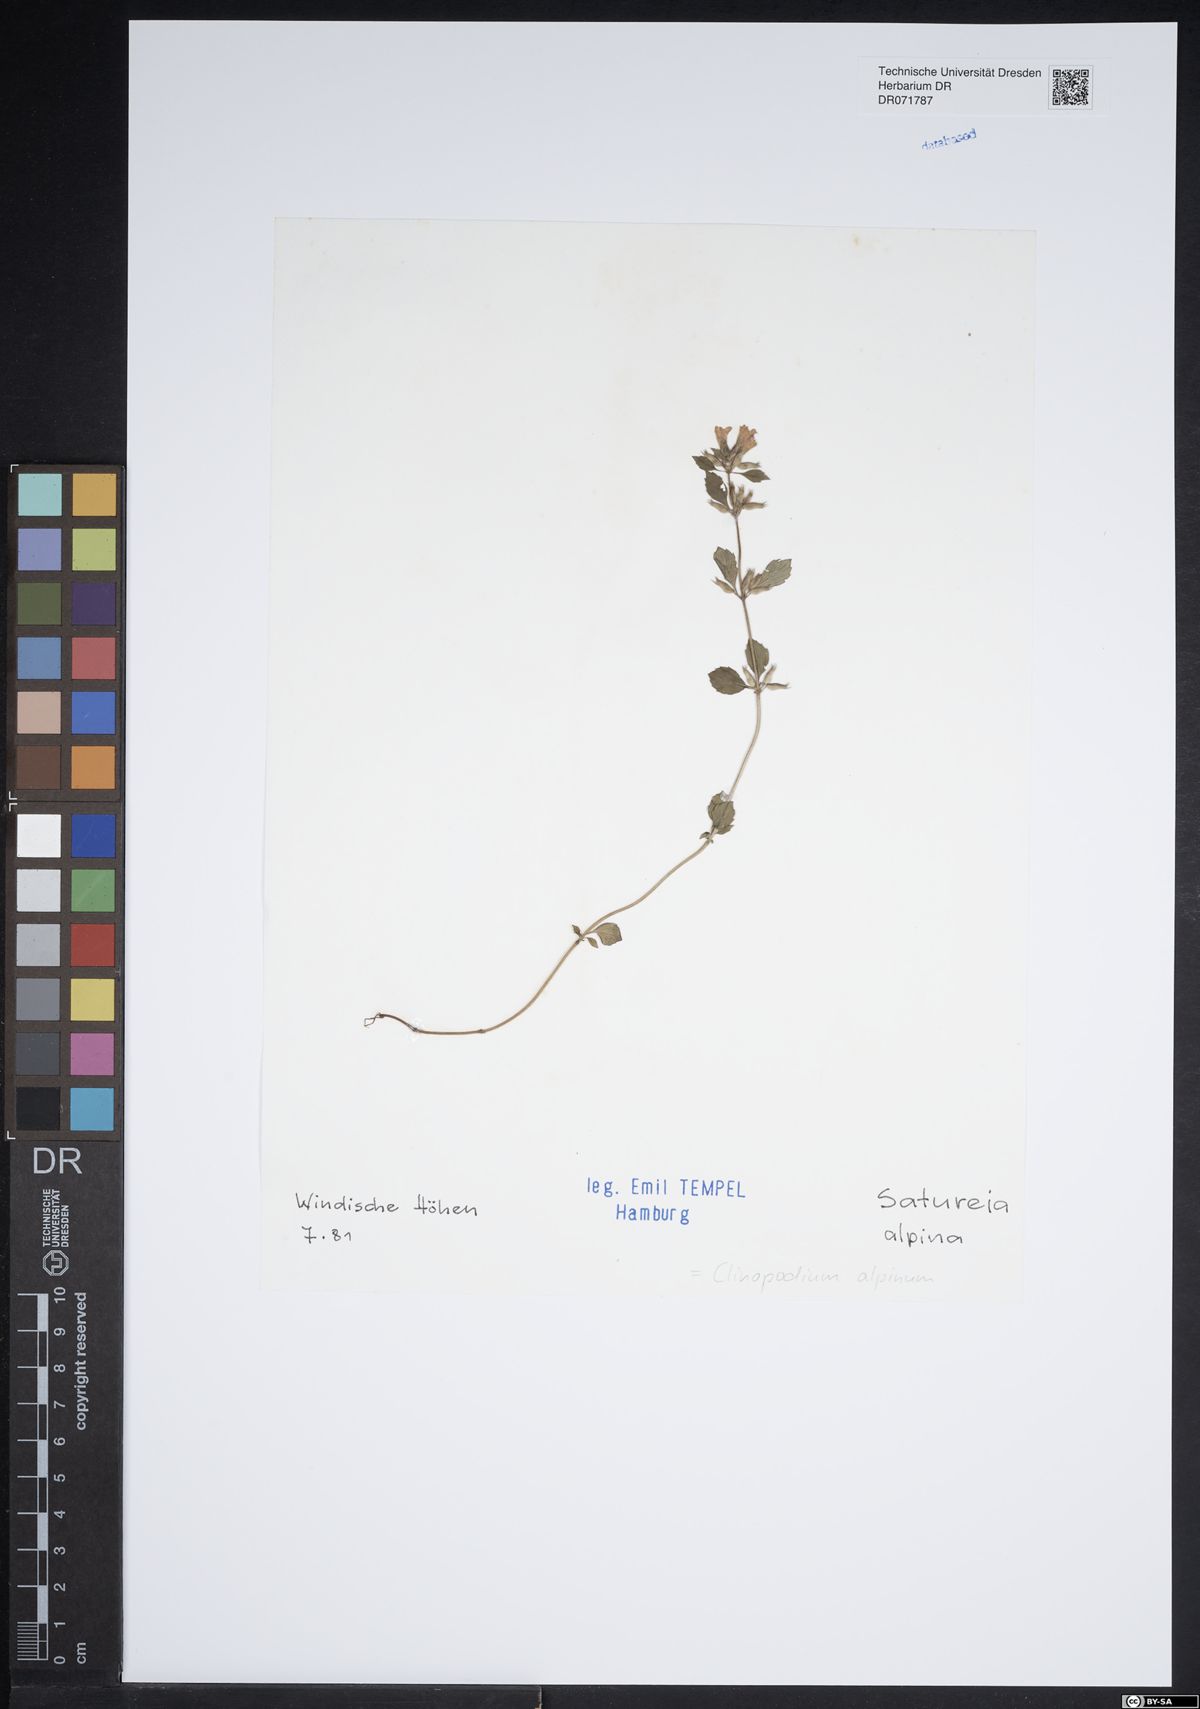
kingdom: Plantae
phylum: Tracheophyta
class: Magnoliopsida
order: Lamiales
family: Lamiaceae
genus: Clinopodium
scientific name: Clinopodium alpinum
